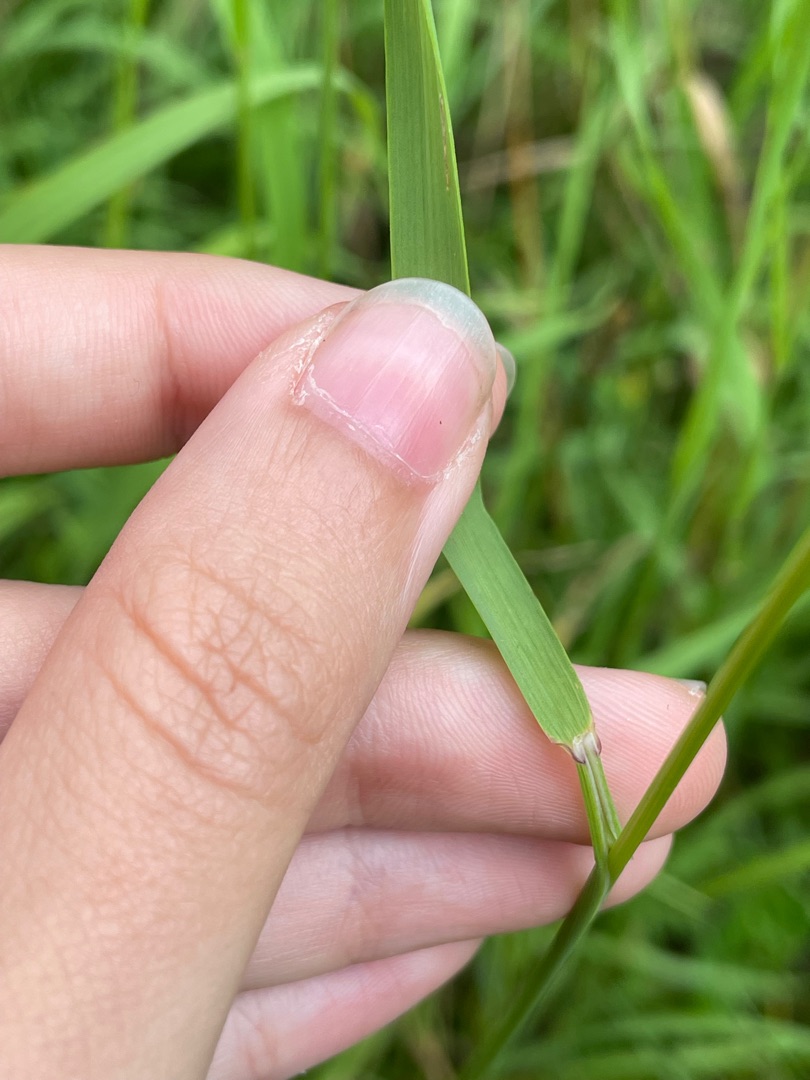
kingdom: Plantae
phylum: Tracheophyta
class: Liliopsida
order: Poales
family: Poaceae
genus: Arrhenatherum
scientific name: Arrhenatherum elatius
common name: Draphavre
